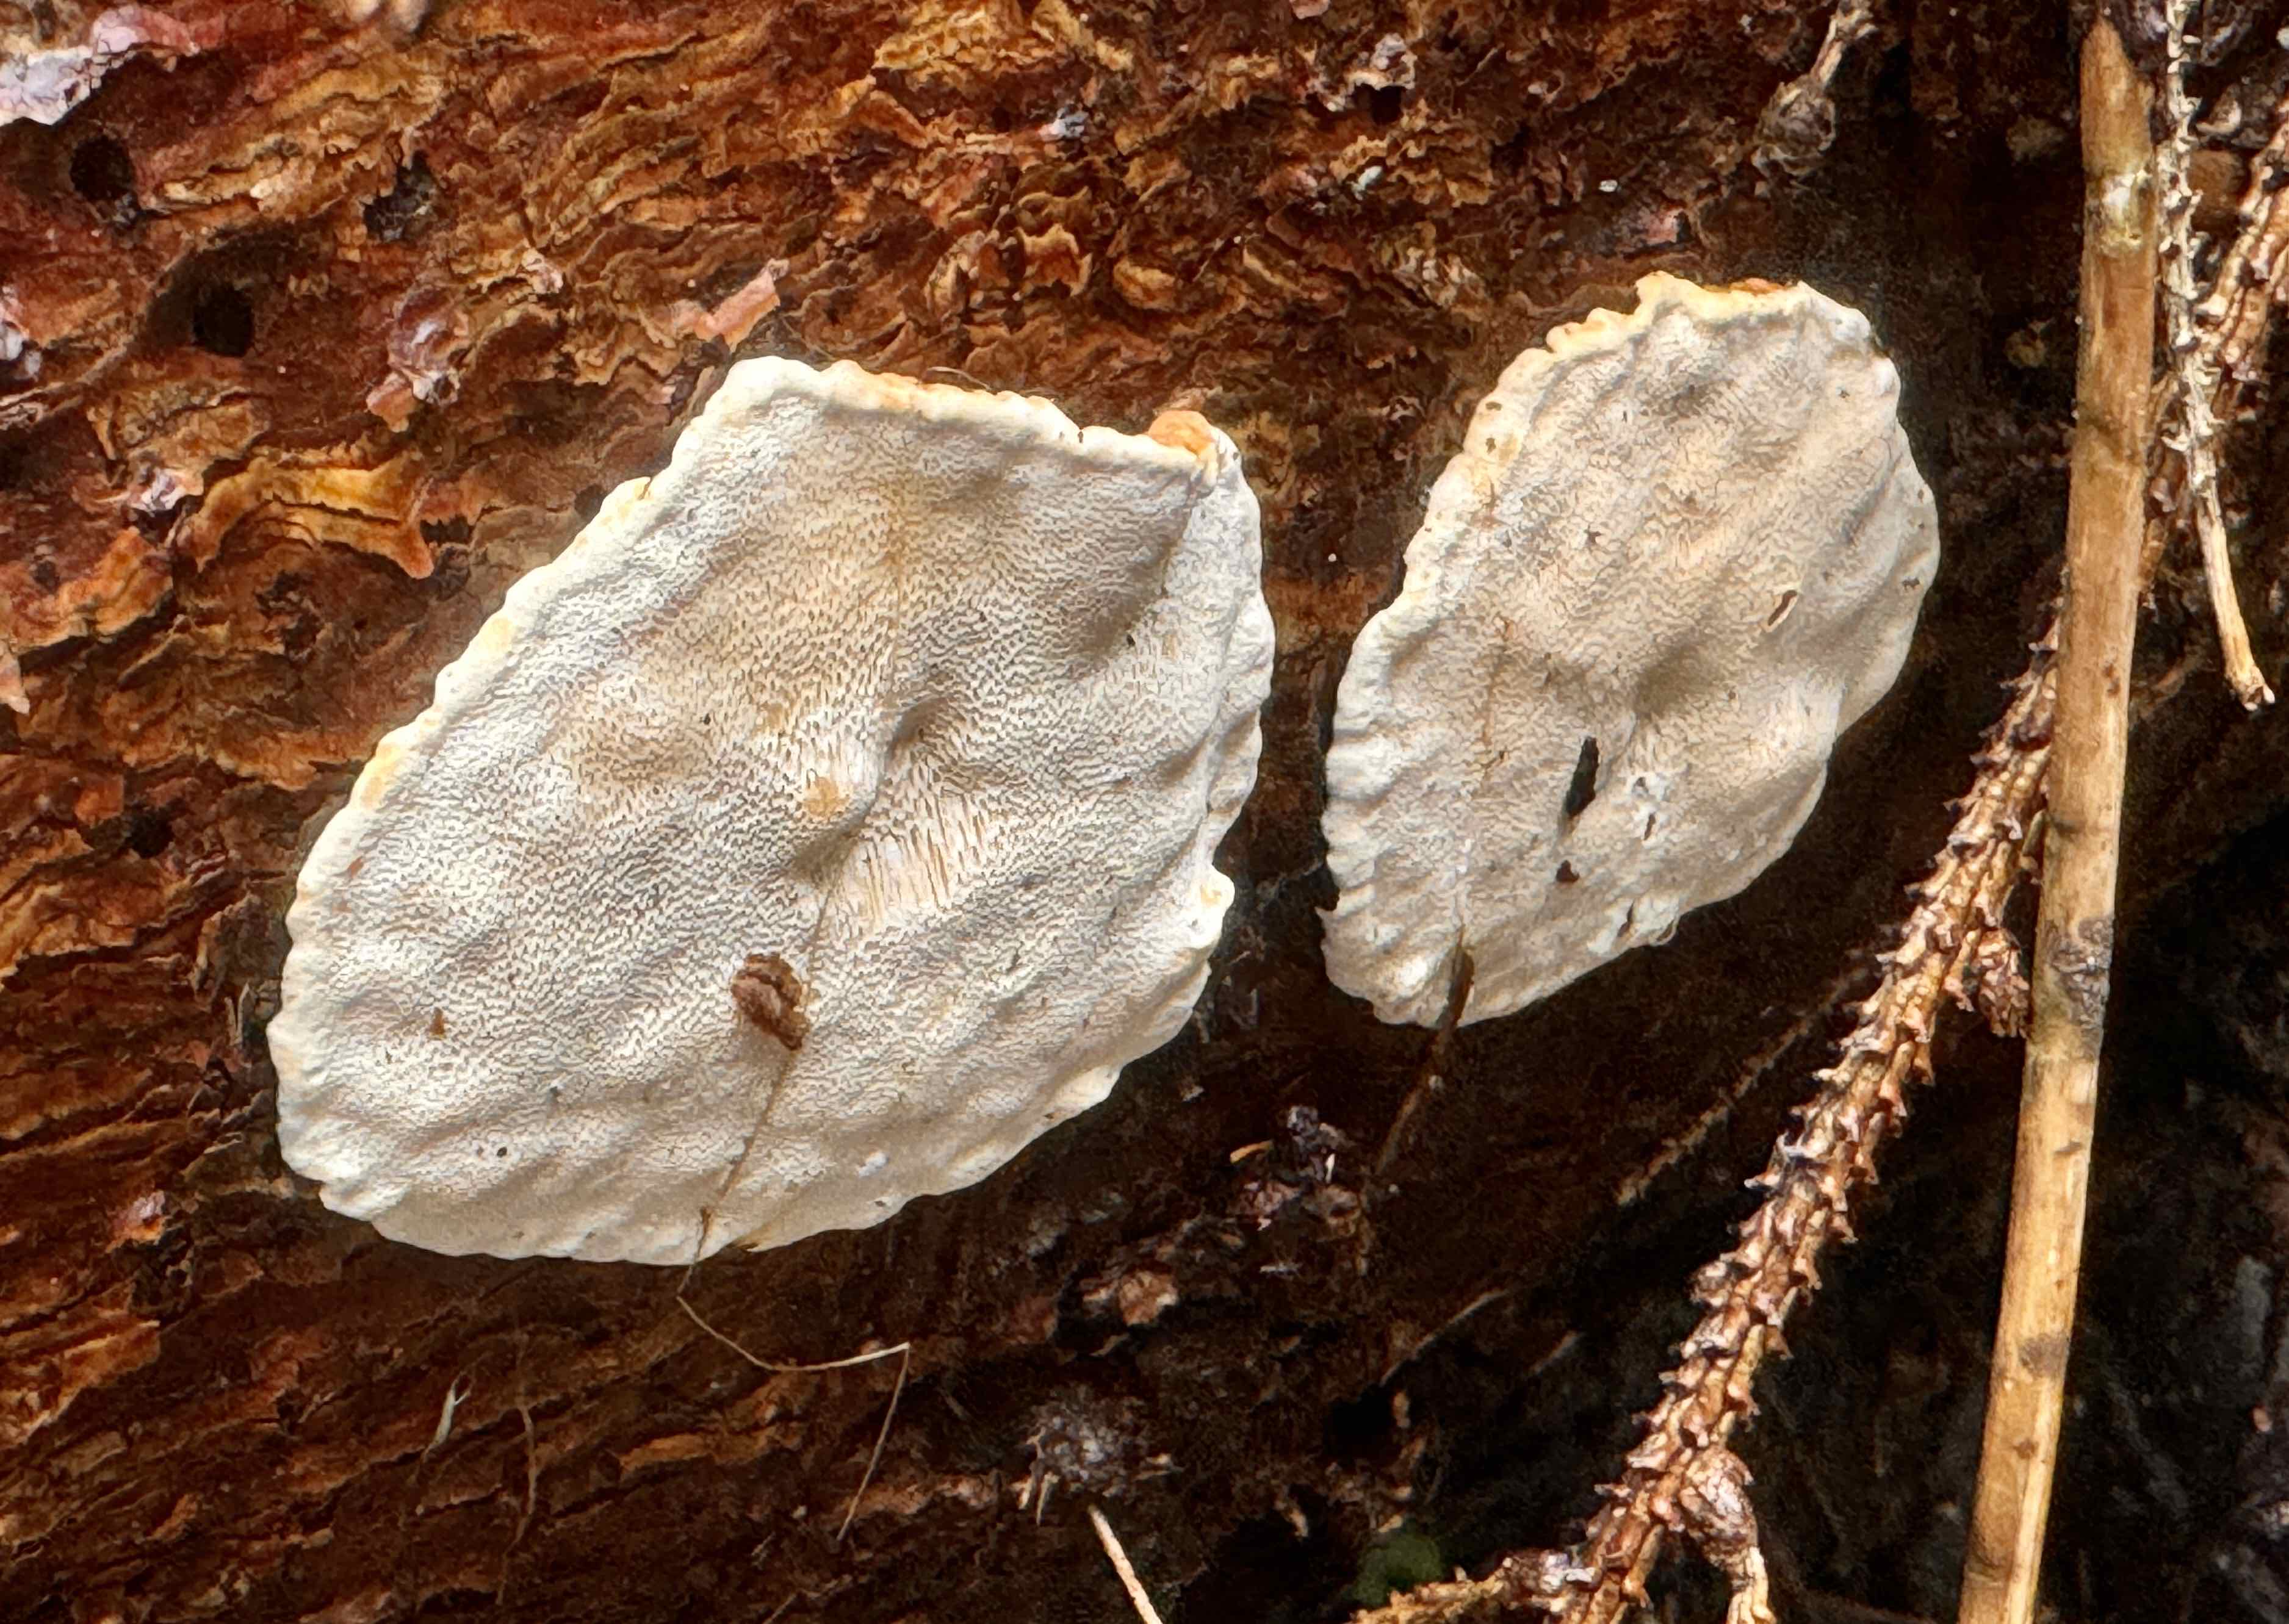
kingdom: Fungi
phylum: Basidiomycota
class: Agaricomycetes
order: Russulales
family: Bondarzewiaceae
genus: Heterobasidion
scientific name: Heterobasidion annosum
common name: almindelig rodfordærver
